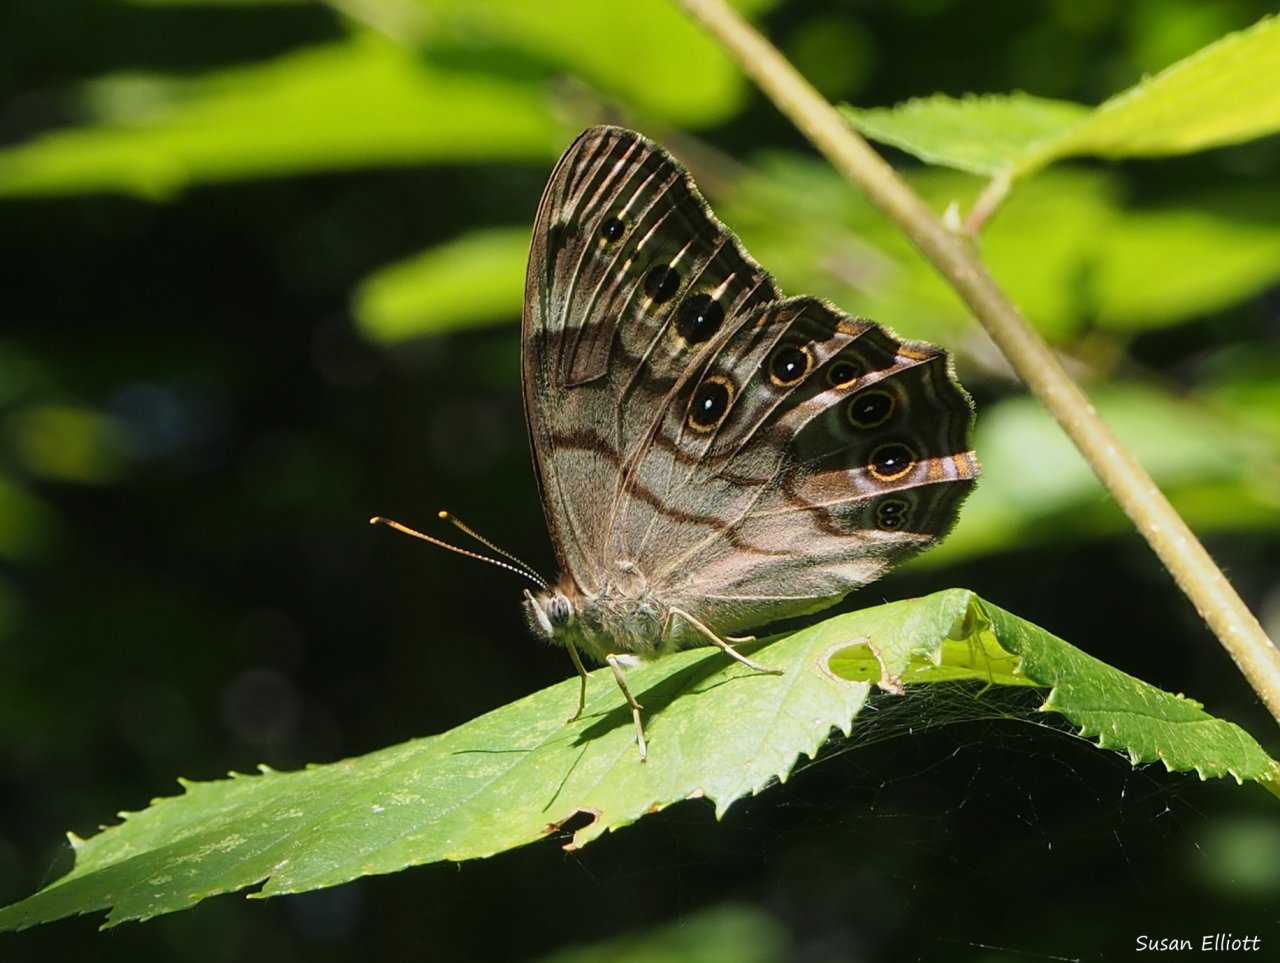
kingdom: Animalia
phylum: Arthropoda
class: Insecta
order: Lepidoptera
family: Nymphalidae
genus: Lethe
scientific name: Lethe anthedon
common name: Northern Pearly-Eye
